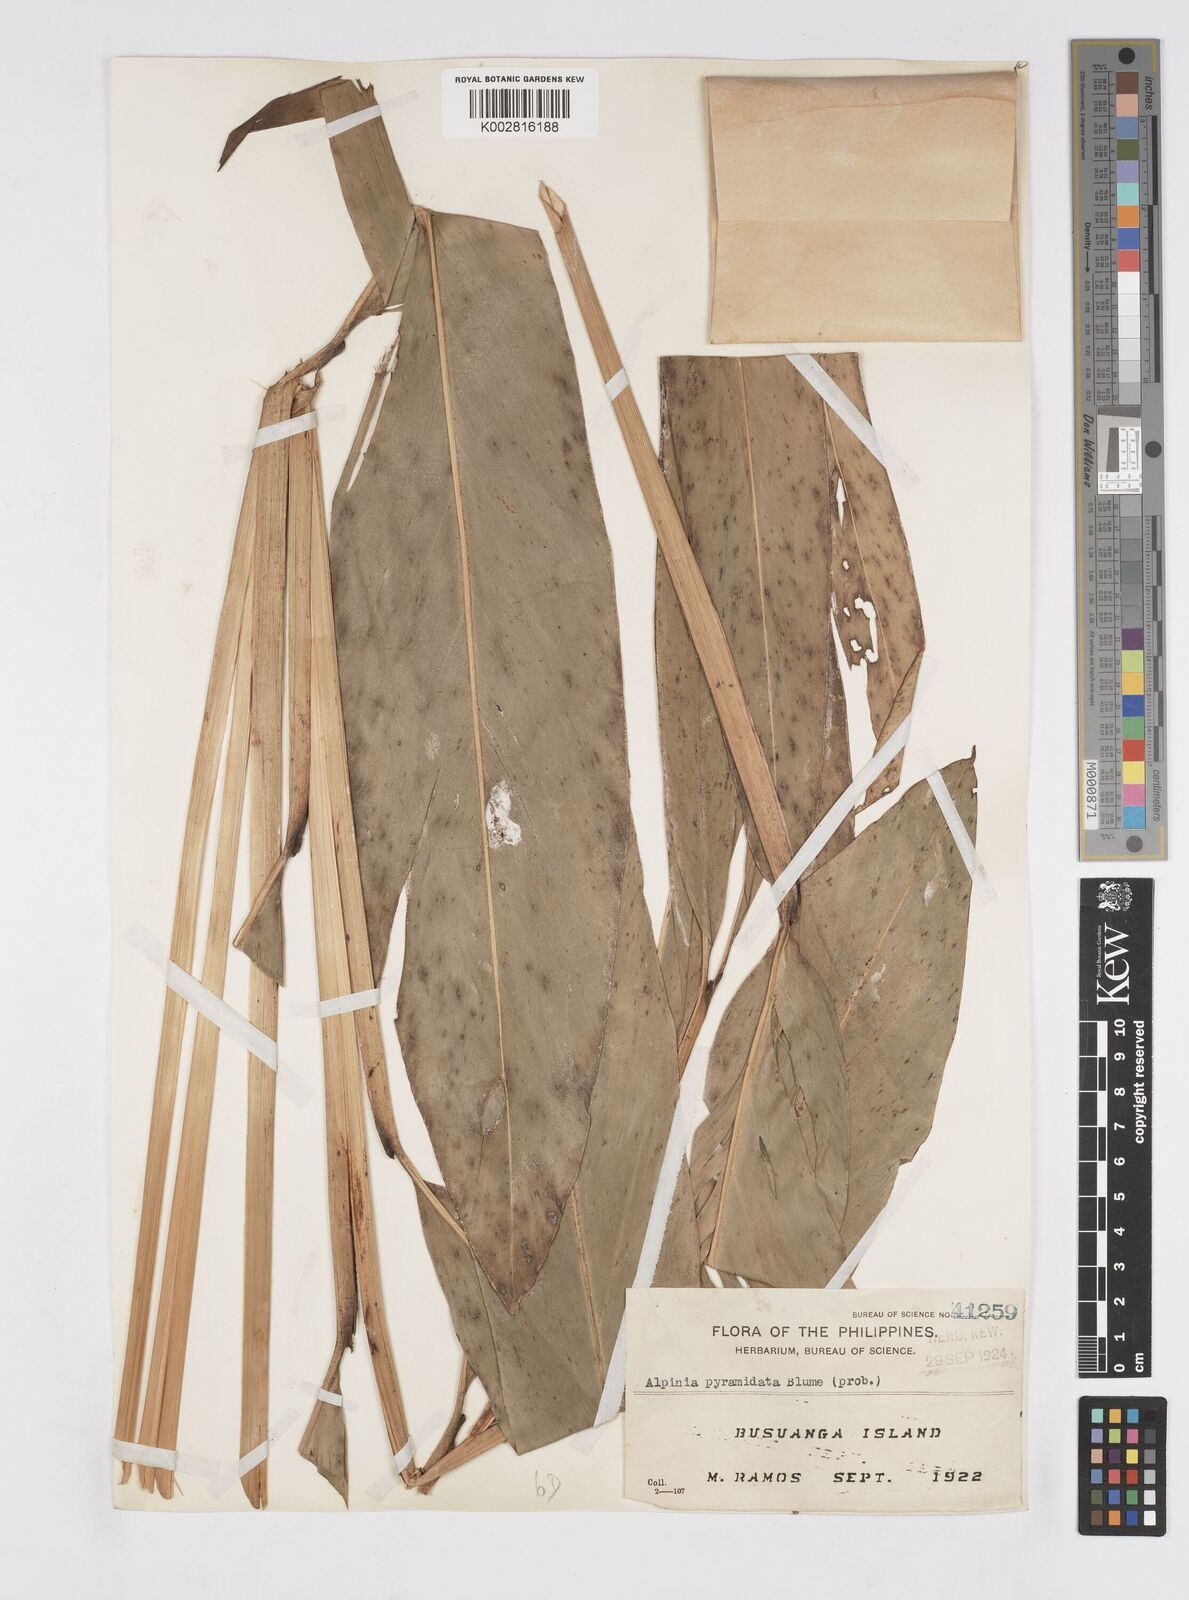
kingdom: Plantae
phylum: Tracheophyta
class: Liliopsida
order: Zingiberales
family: Zingiberaceae
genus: Alpinia
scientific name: Alpinia galanga
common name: Siamese-ginger
